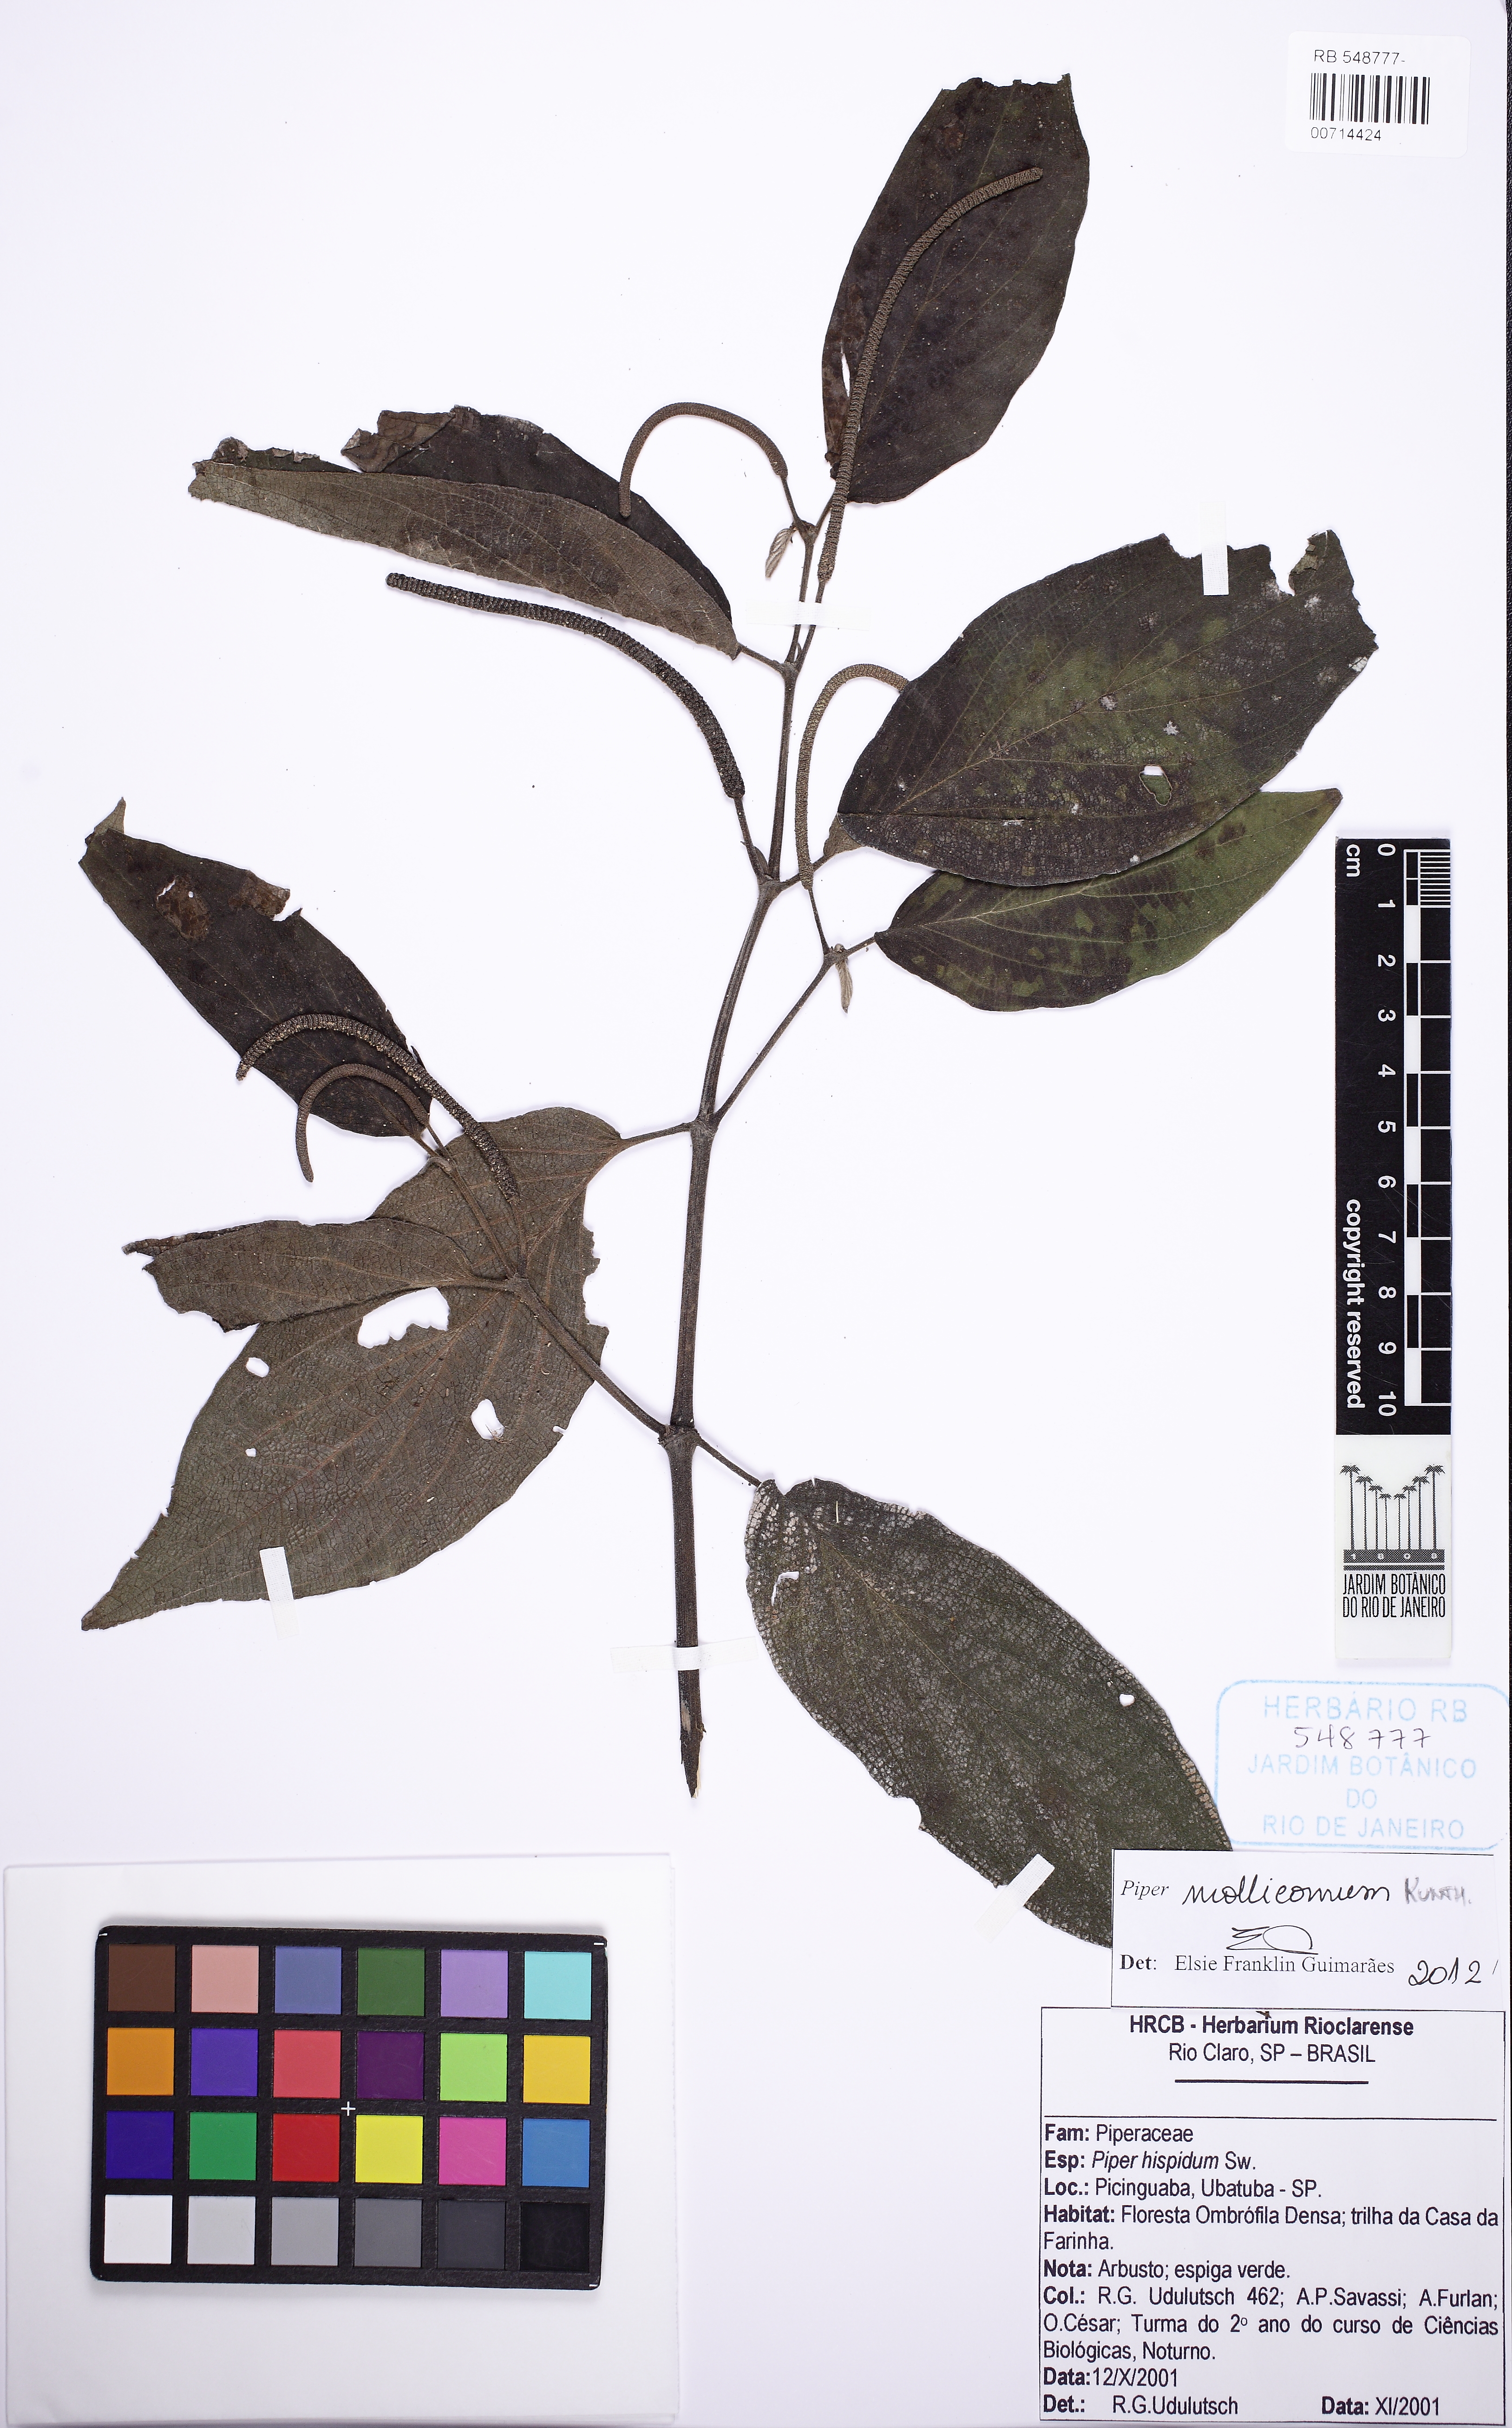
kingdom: Plantae
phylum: Tracheophyta
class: Magnoliopsida
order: Piperales
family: Piperaceae
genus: Piper
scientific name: Piper mollicomum
